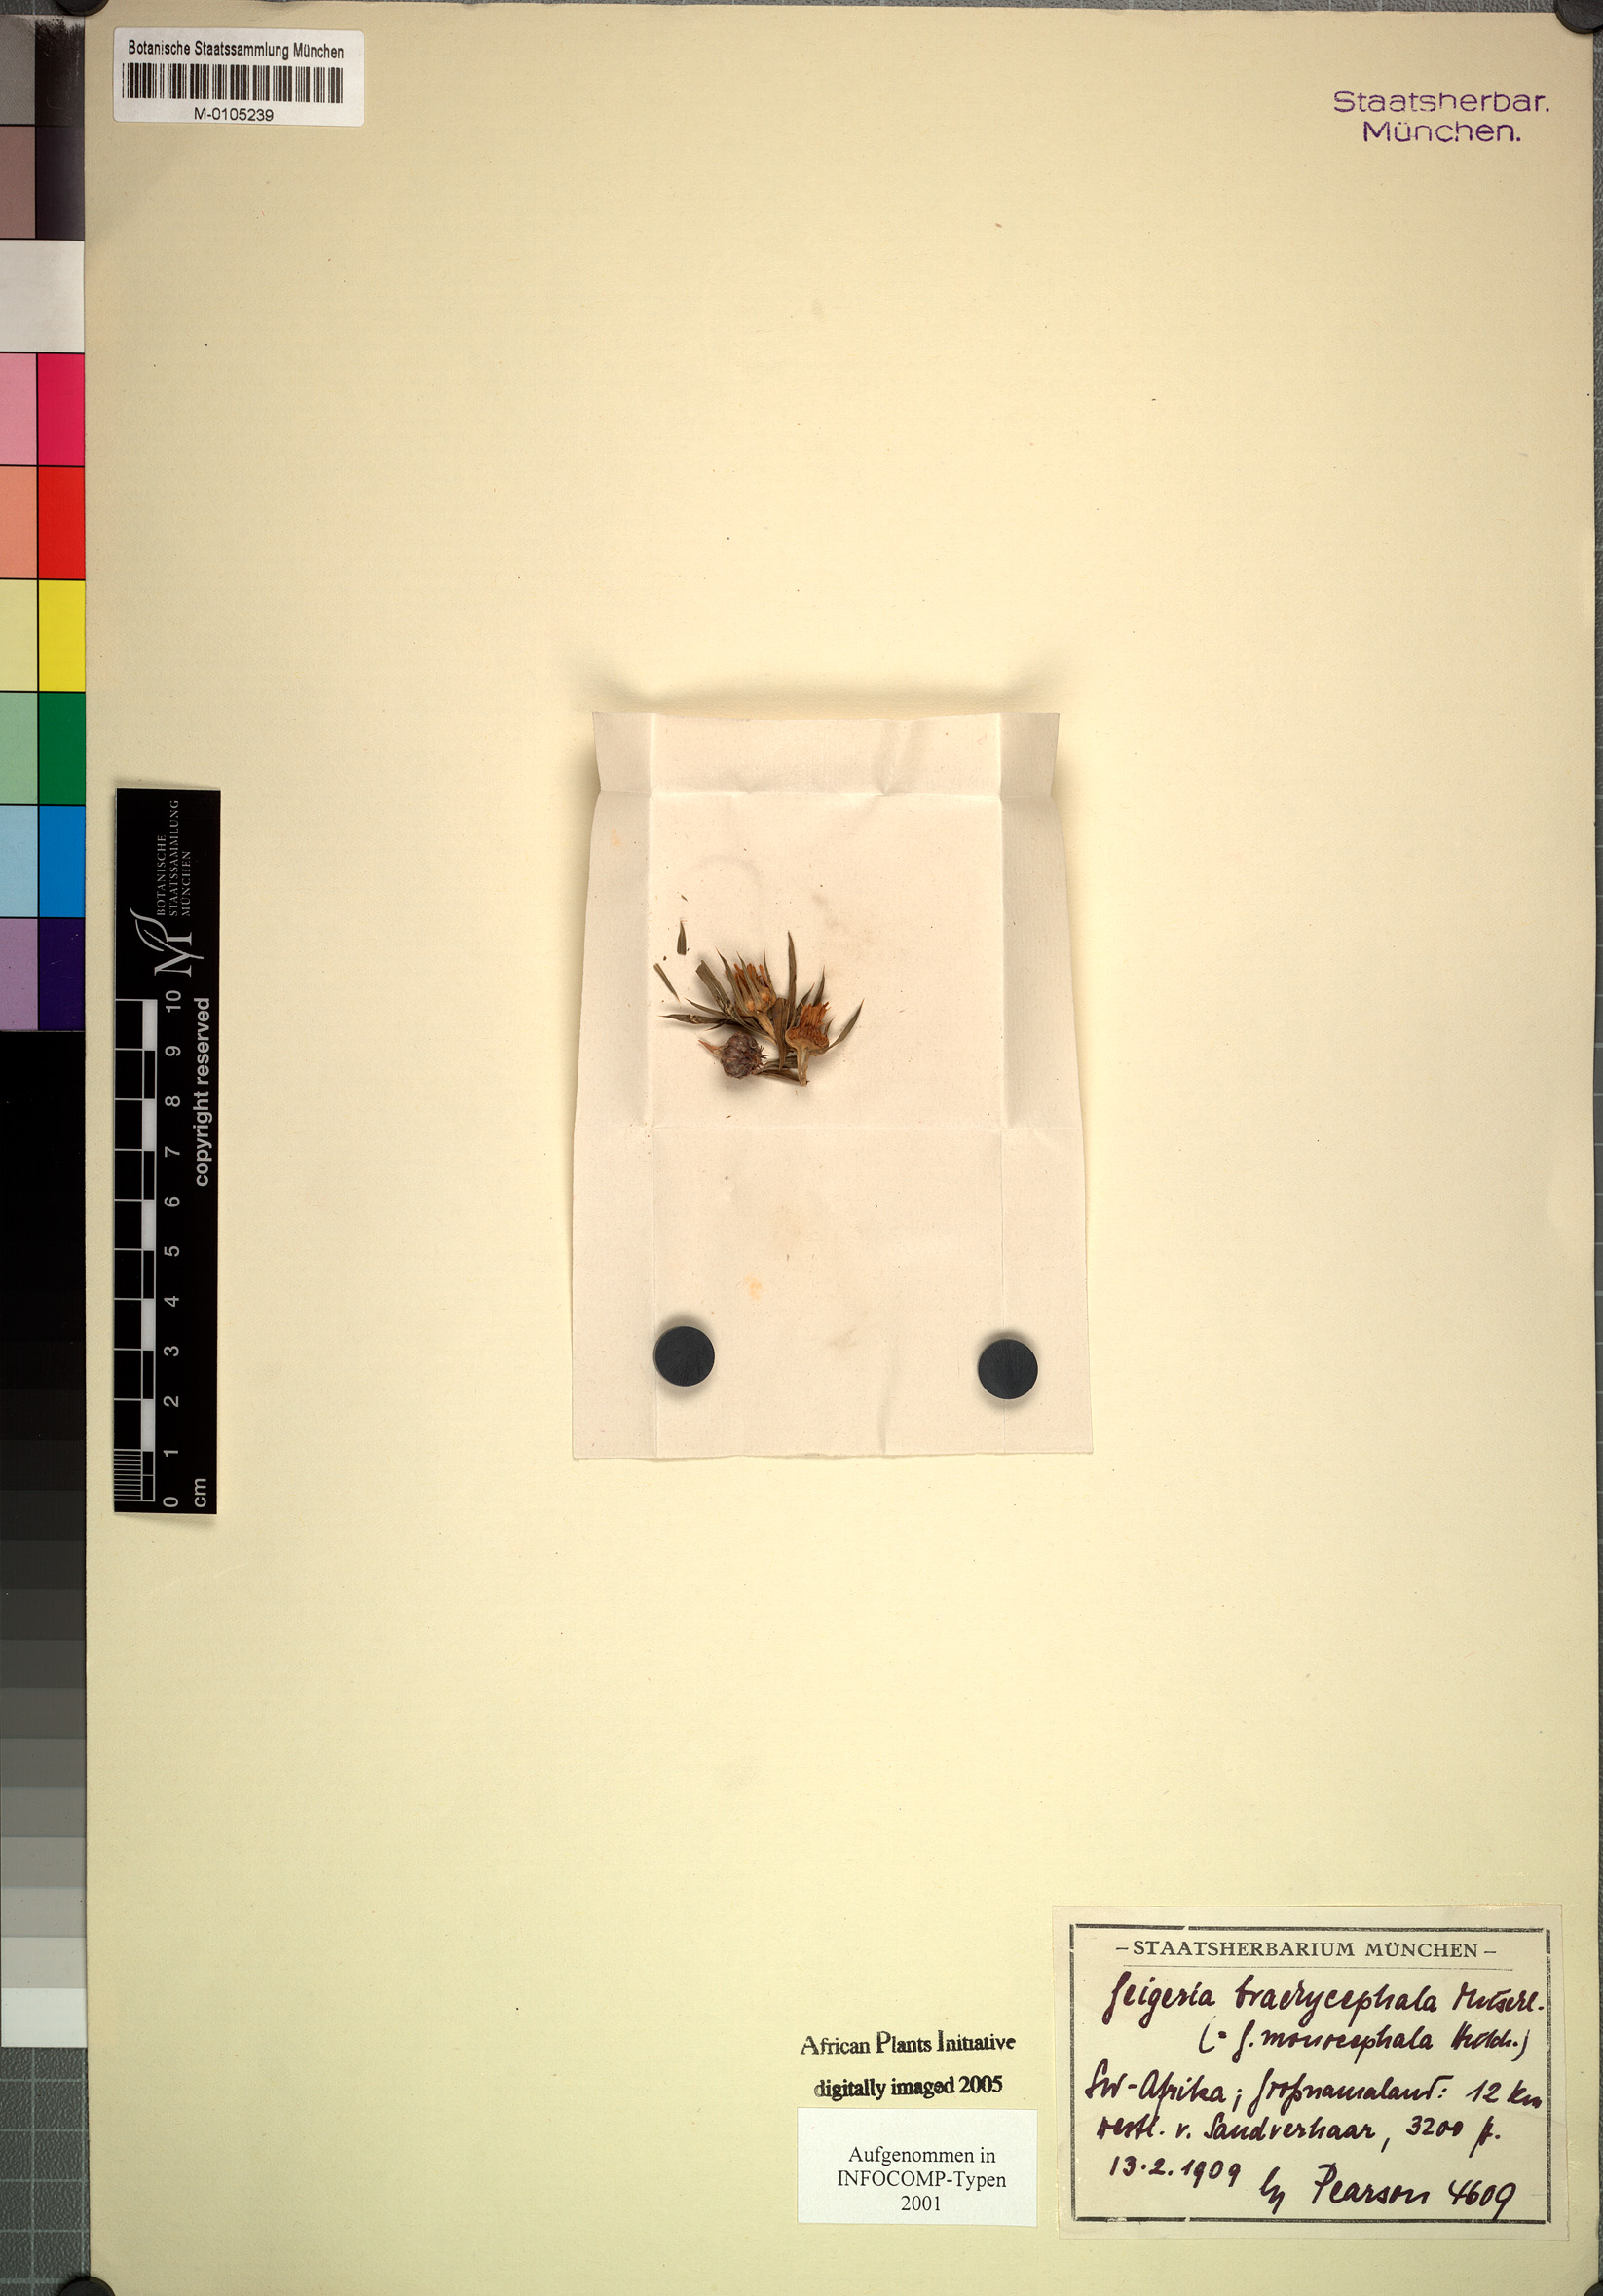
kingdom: Plantae
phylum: Tracheophyta
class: Magnoliopsida
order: Asterales
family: Asteraceae
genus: Geigeria
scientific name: Geigeria plumosa
